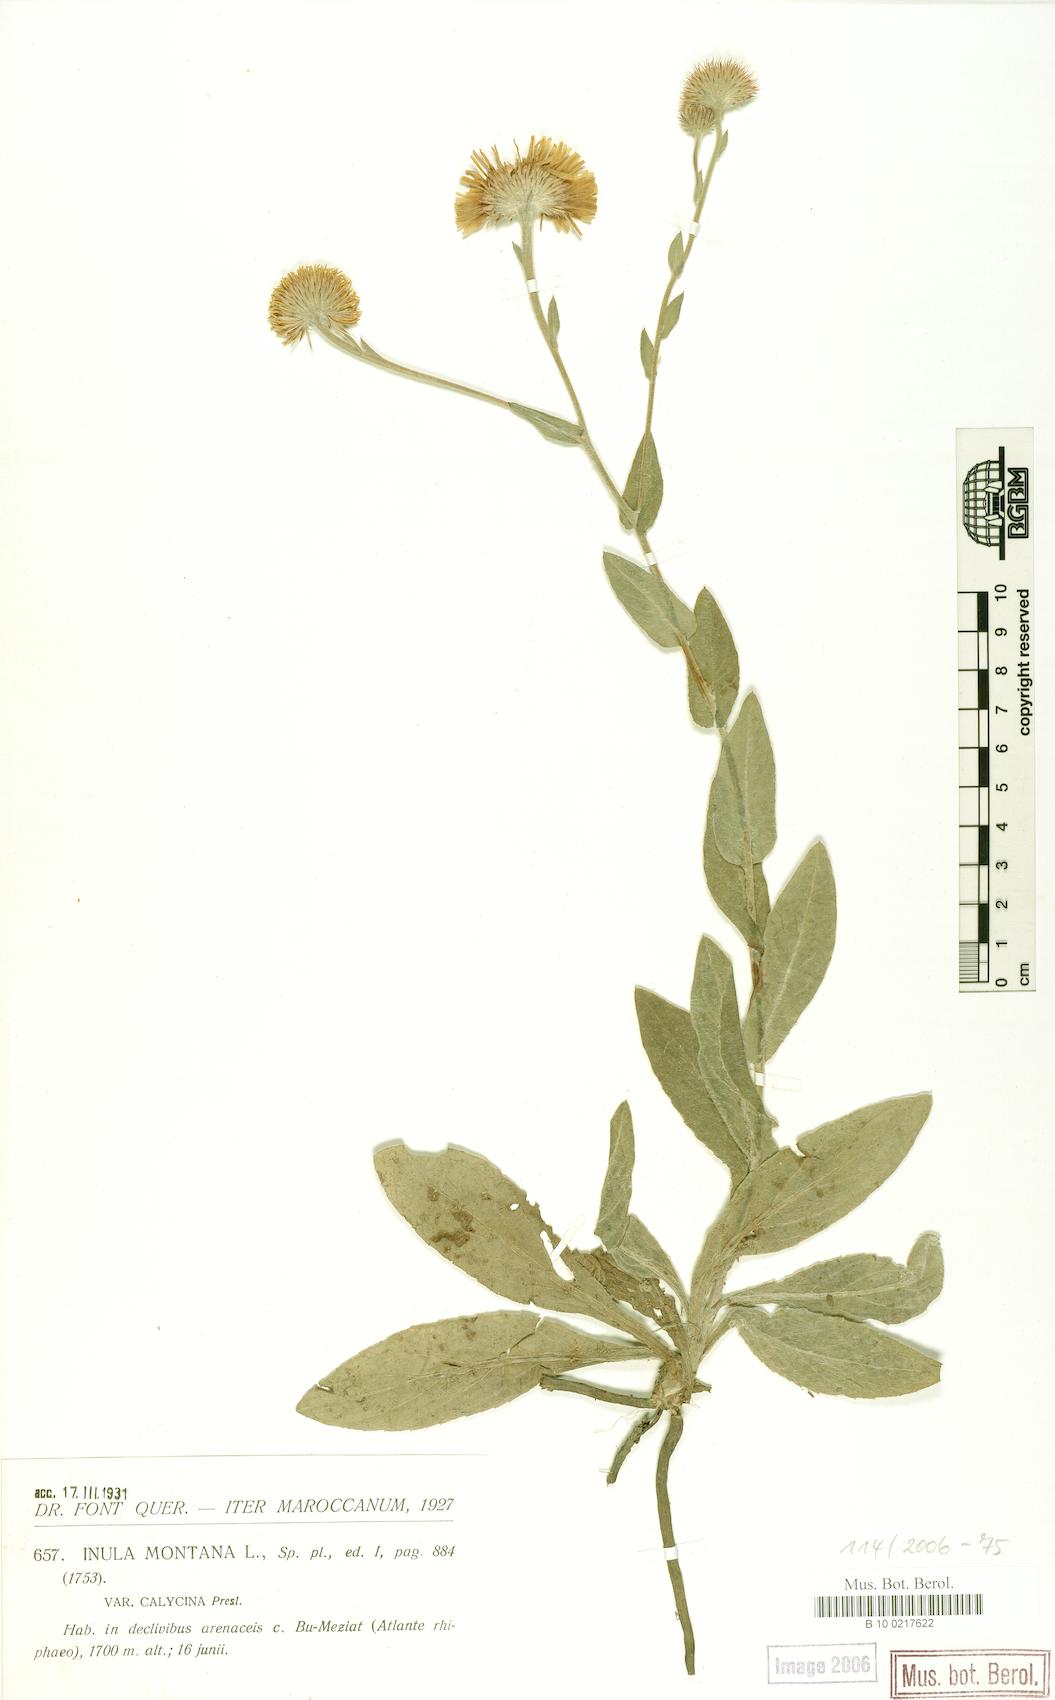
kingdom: Plantae
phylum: Tracheophyta
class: Magnoliopsida
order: Asterales
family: Asteraceae
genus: Pulicaria
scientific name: Pulicaria odora
